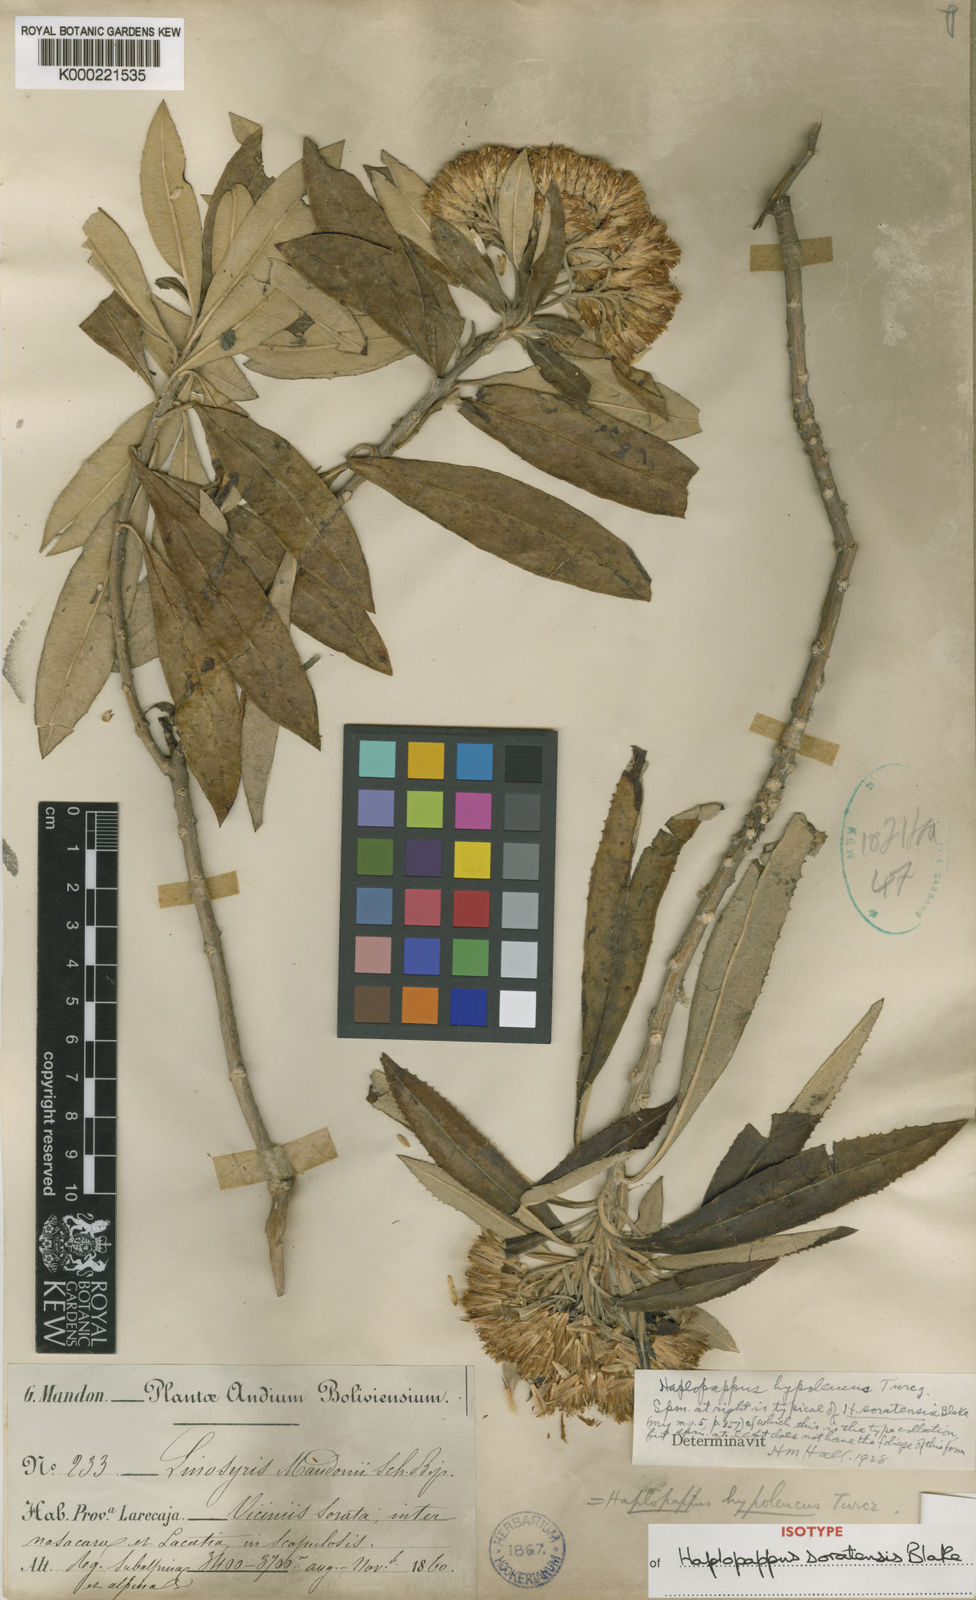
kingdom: Plantae
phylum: Tracheophyta
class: Magnoliopsida
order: Asterales
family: Asteraceae
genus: Llerasia
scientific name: Llerasia soratensis
